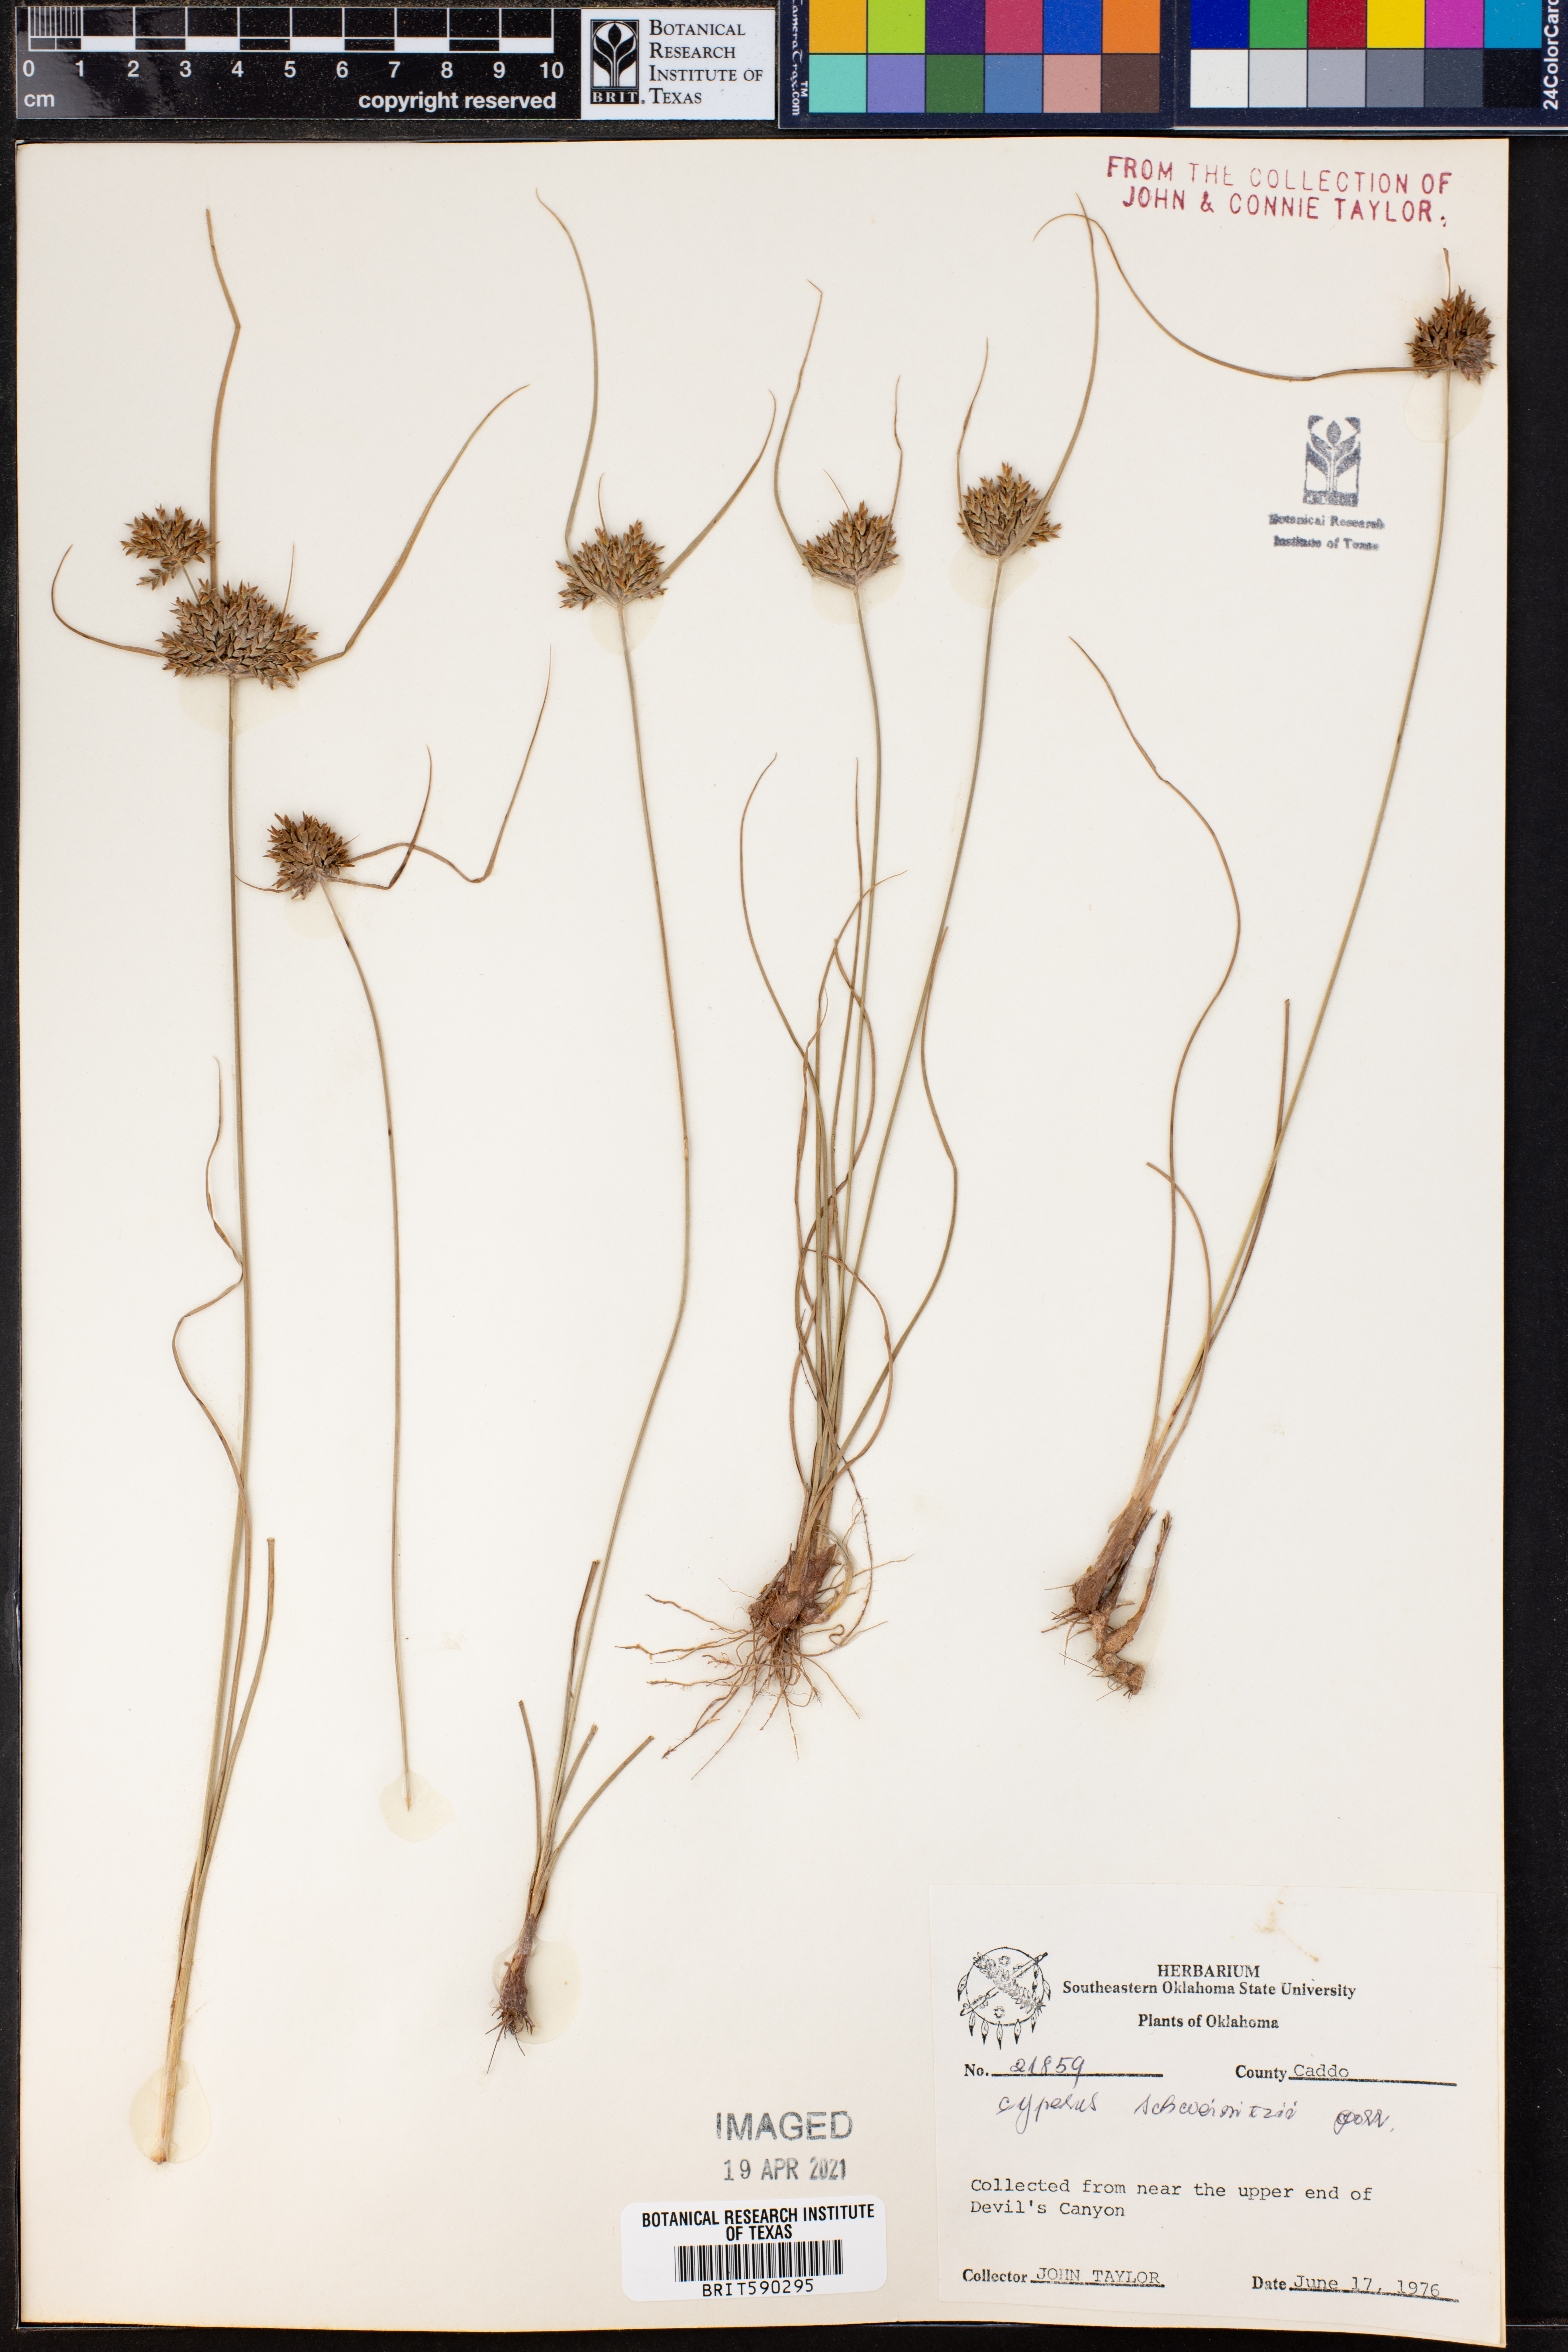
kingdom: Plantae
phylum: Tracheophyta
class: Liliopsida
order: Poales
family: Cyperaceae
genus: Cyperus
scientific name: Cyperus schweinitzii
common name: Schweinitz's cyperus
